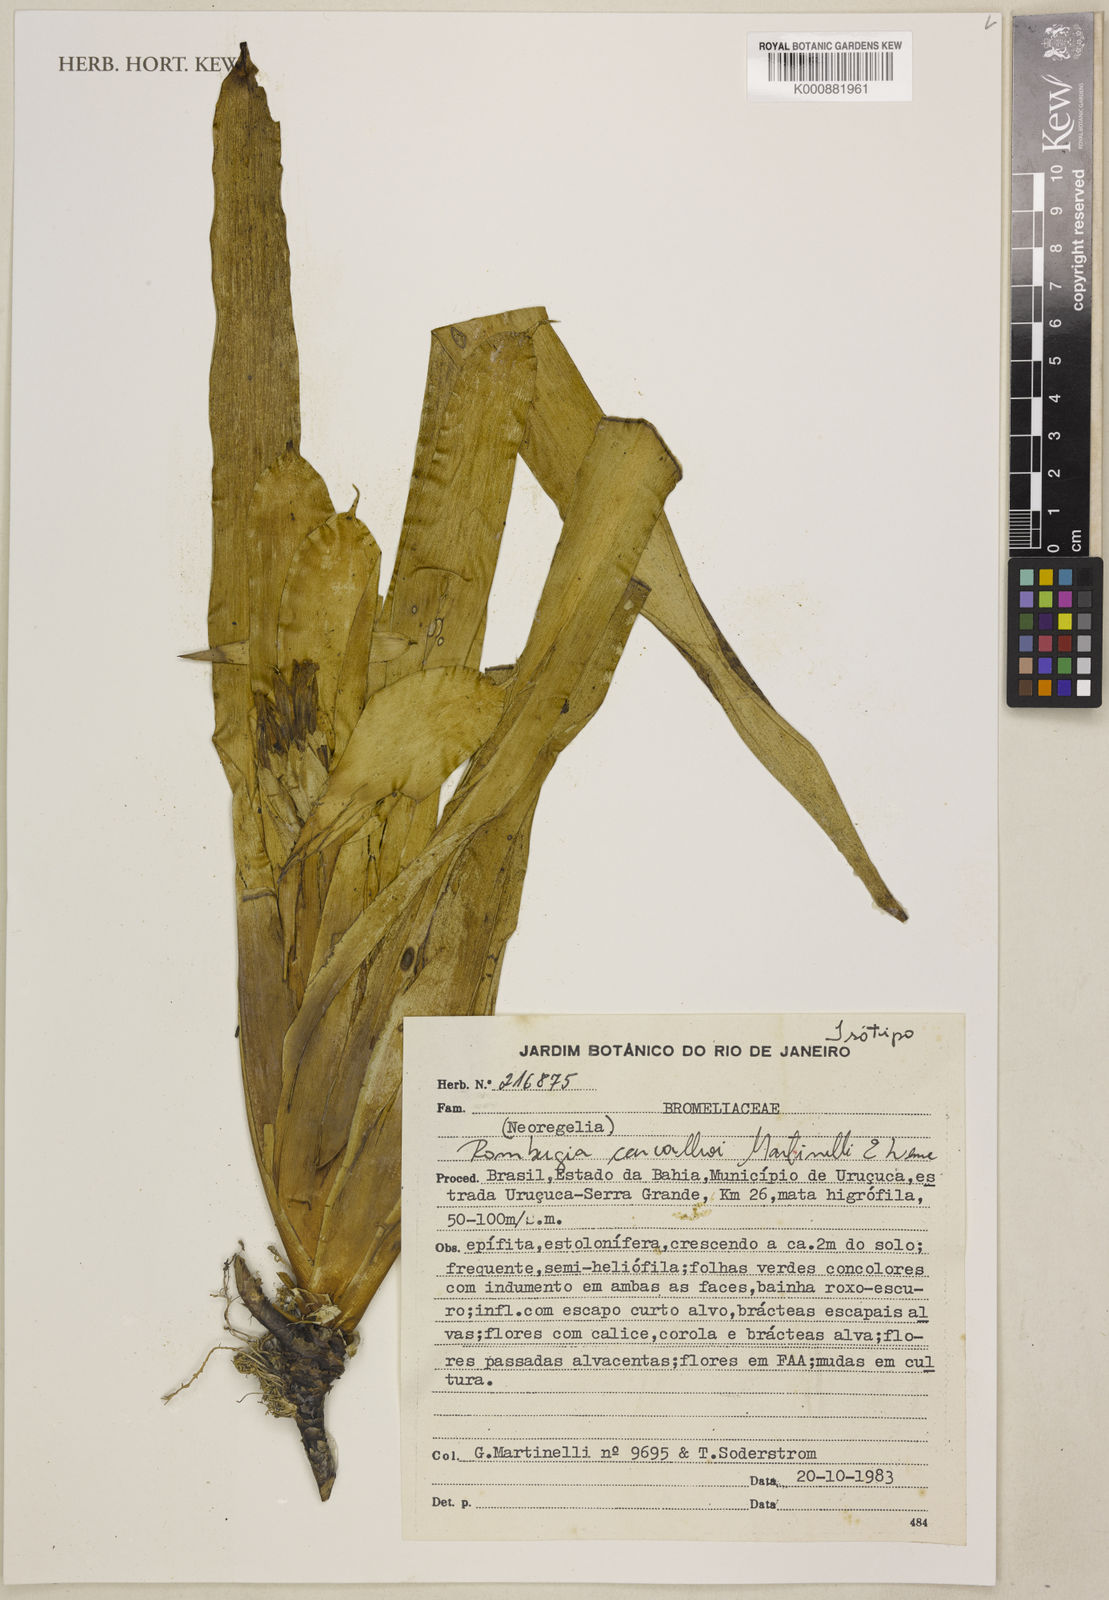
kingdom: Plantae
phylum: Tracheophyta
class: Liliopsida
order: Poales
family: Bromeliaceae
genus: Wittmackia
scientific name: Wittmackia carvalhoi
